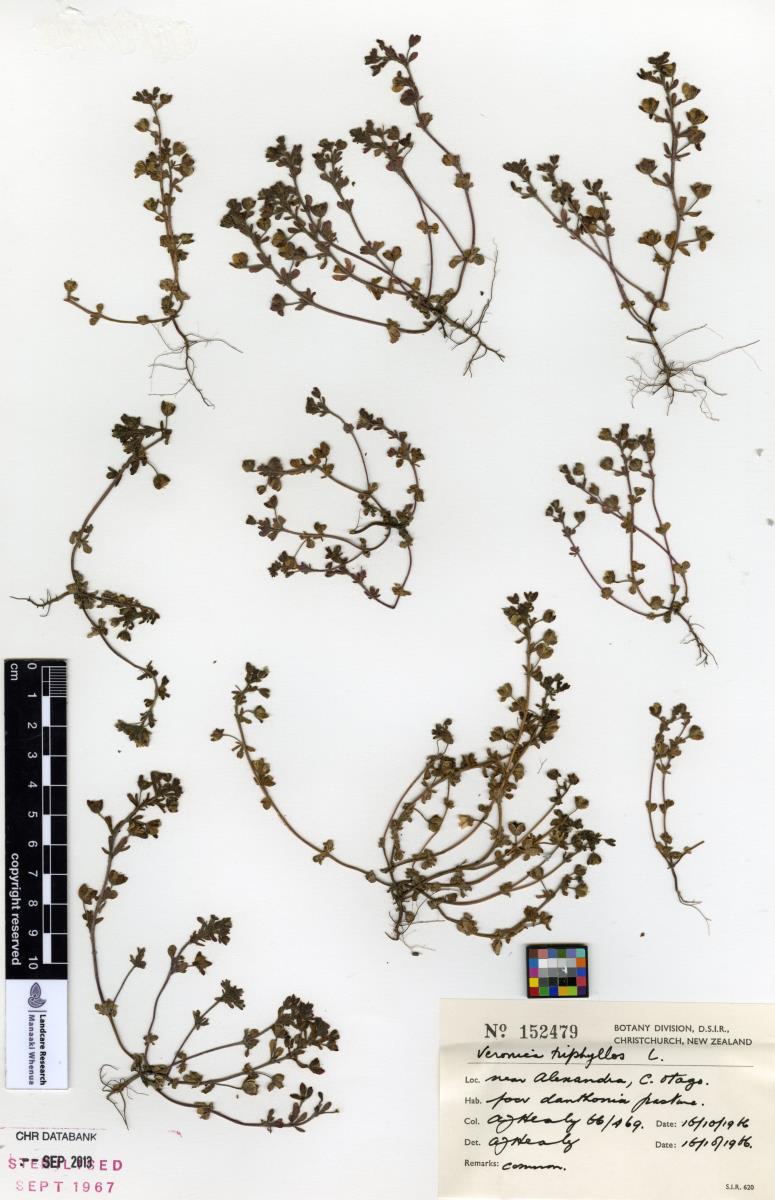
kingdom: Plantae
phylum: Tracheophyta
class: Magnoliopsida
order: Lamiales
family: Plantaginaceae
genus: Veronica
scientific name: Veronica triphyllos
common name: Fingered speedwell
